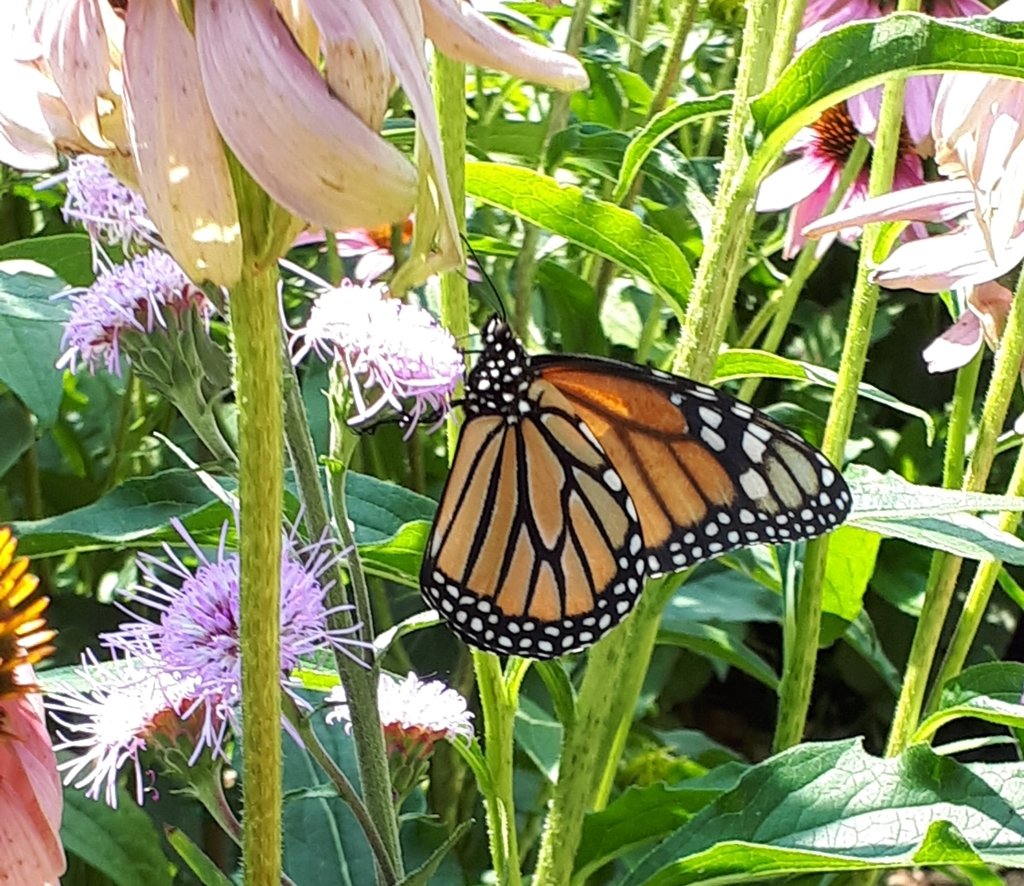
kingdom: Animalia
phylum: Arthropoda
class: Insecta
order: Lepidoptera
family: Nymphalidae
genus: Danaus
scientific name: Danaus plexippus
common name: Monarch
